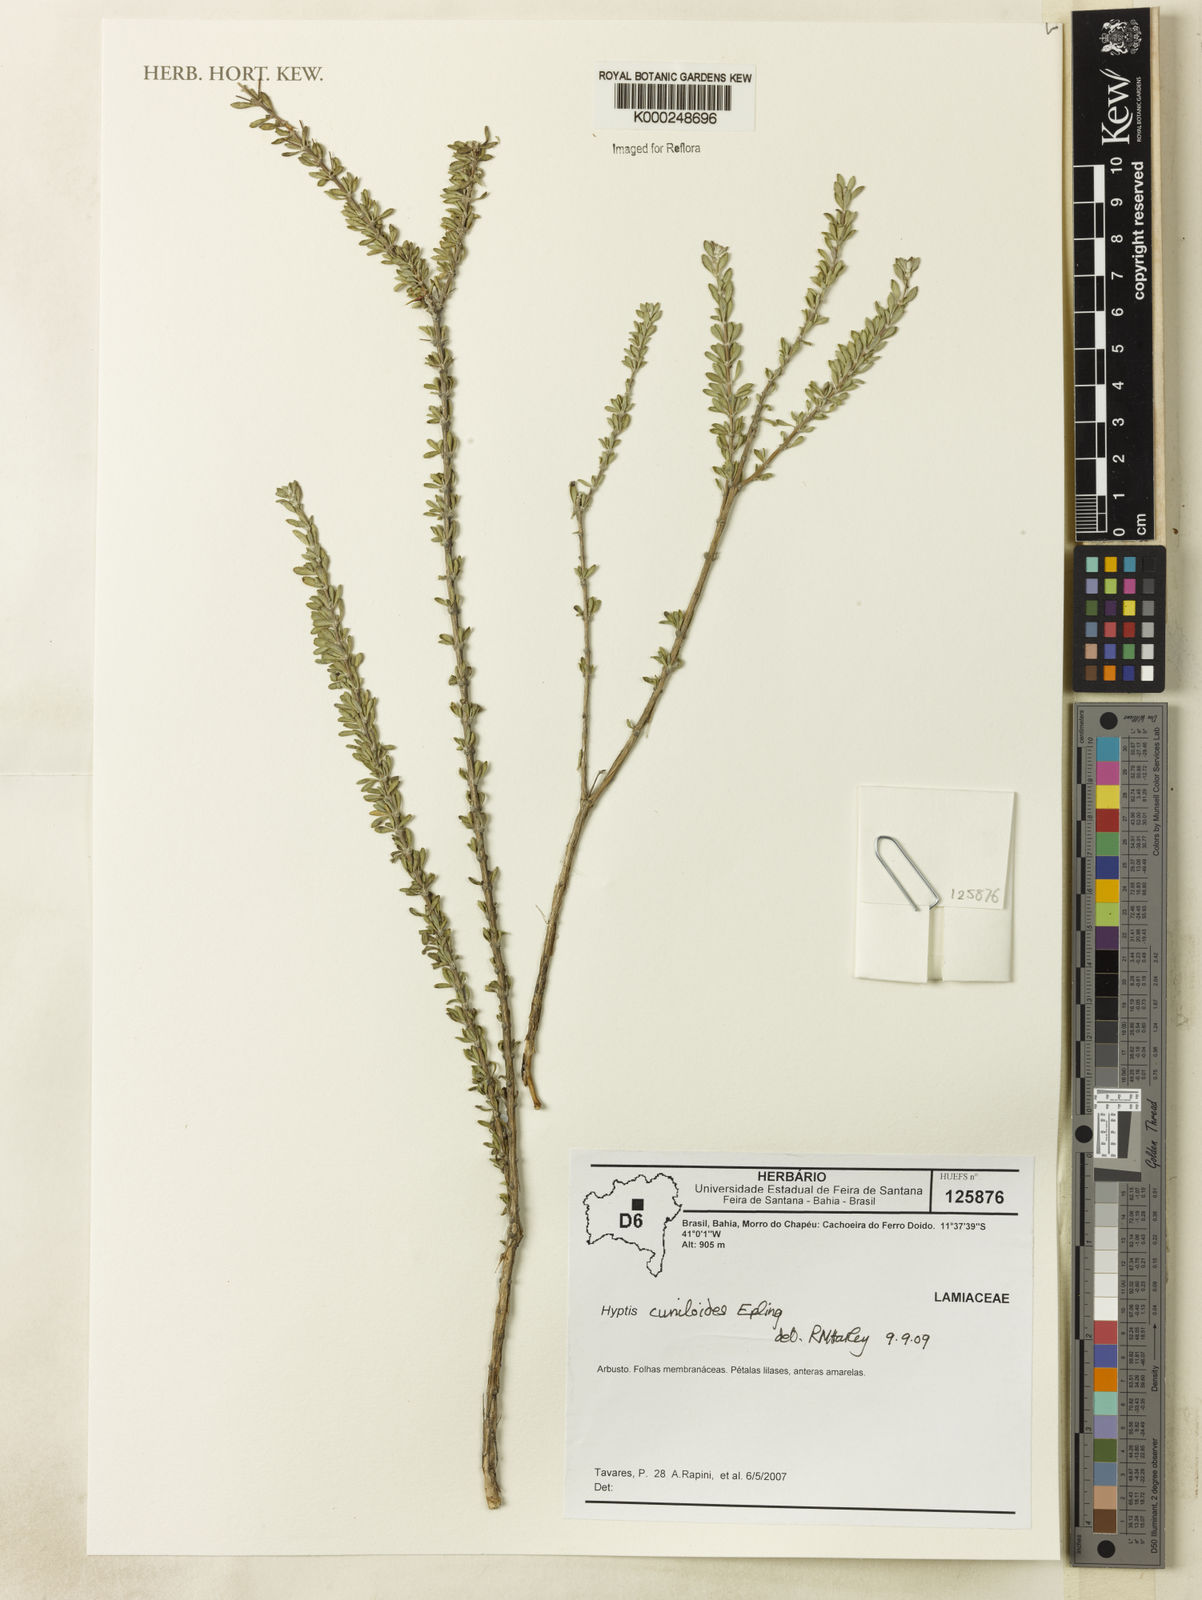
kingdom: Plantae
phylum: Tracheophyta
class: Magnoliopsida
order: Lamiales
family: Lamiaceae
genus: Eplingiella
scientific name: Eplingiella cuniloides
